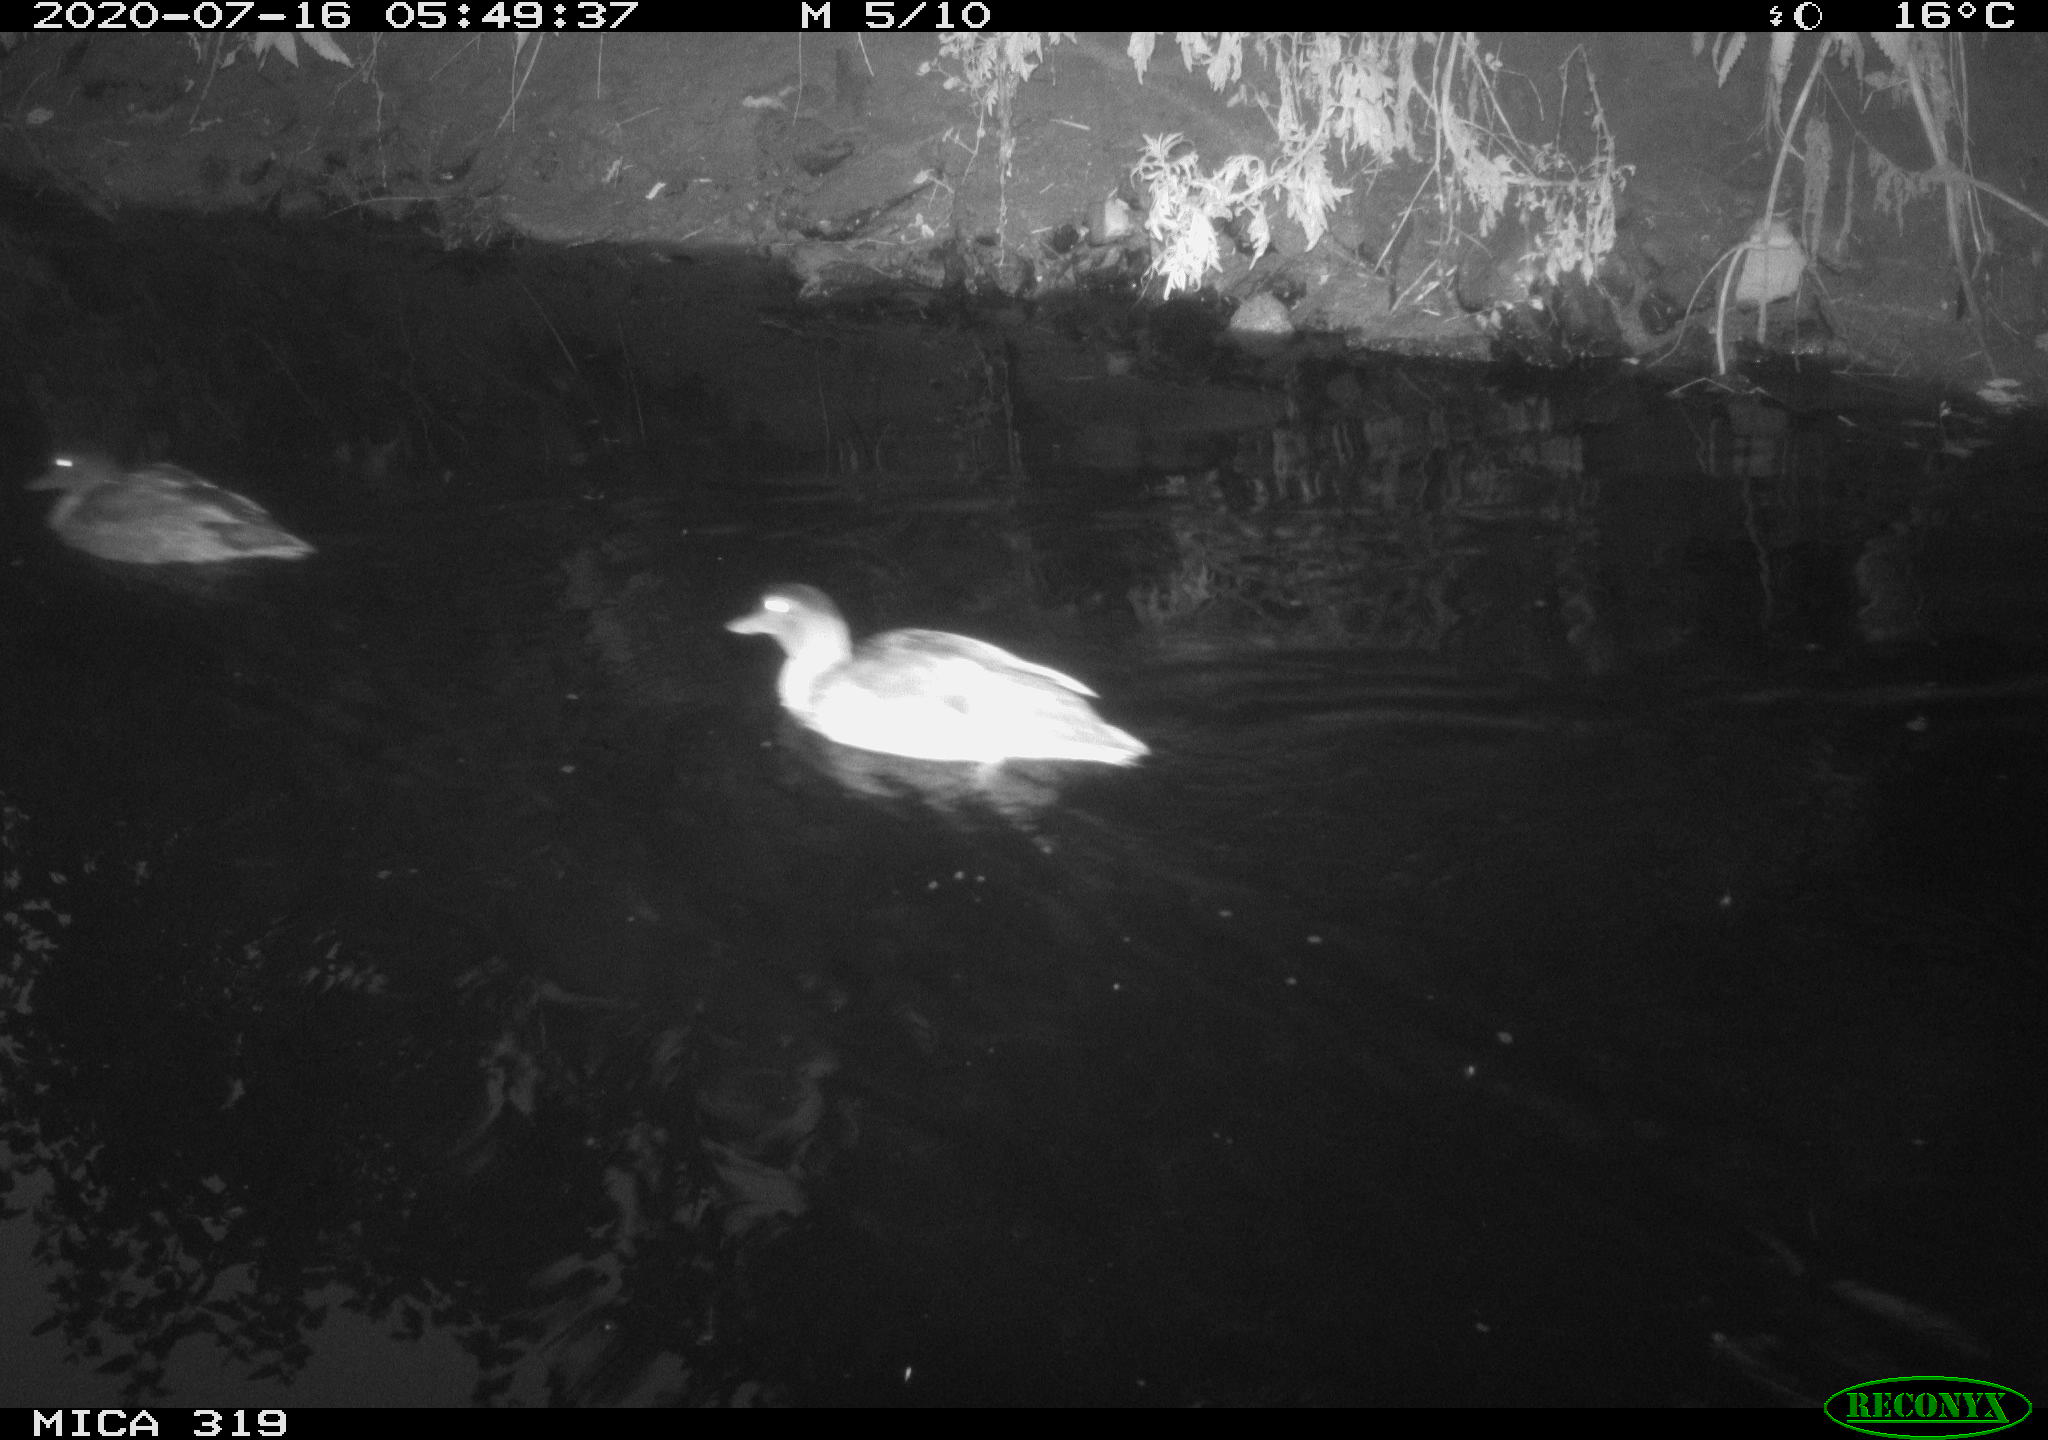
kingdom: Animalia
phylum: Chordata
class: Aves
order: Anseriformes
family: Anatidae
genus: Anas
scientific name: Anas platyrhynchos
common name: Mallard
